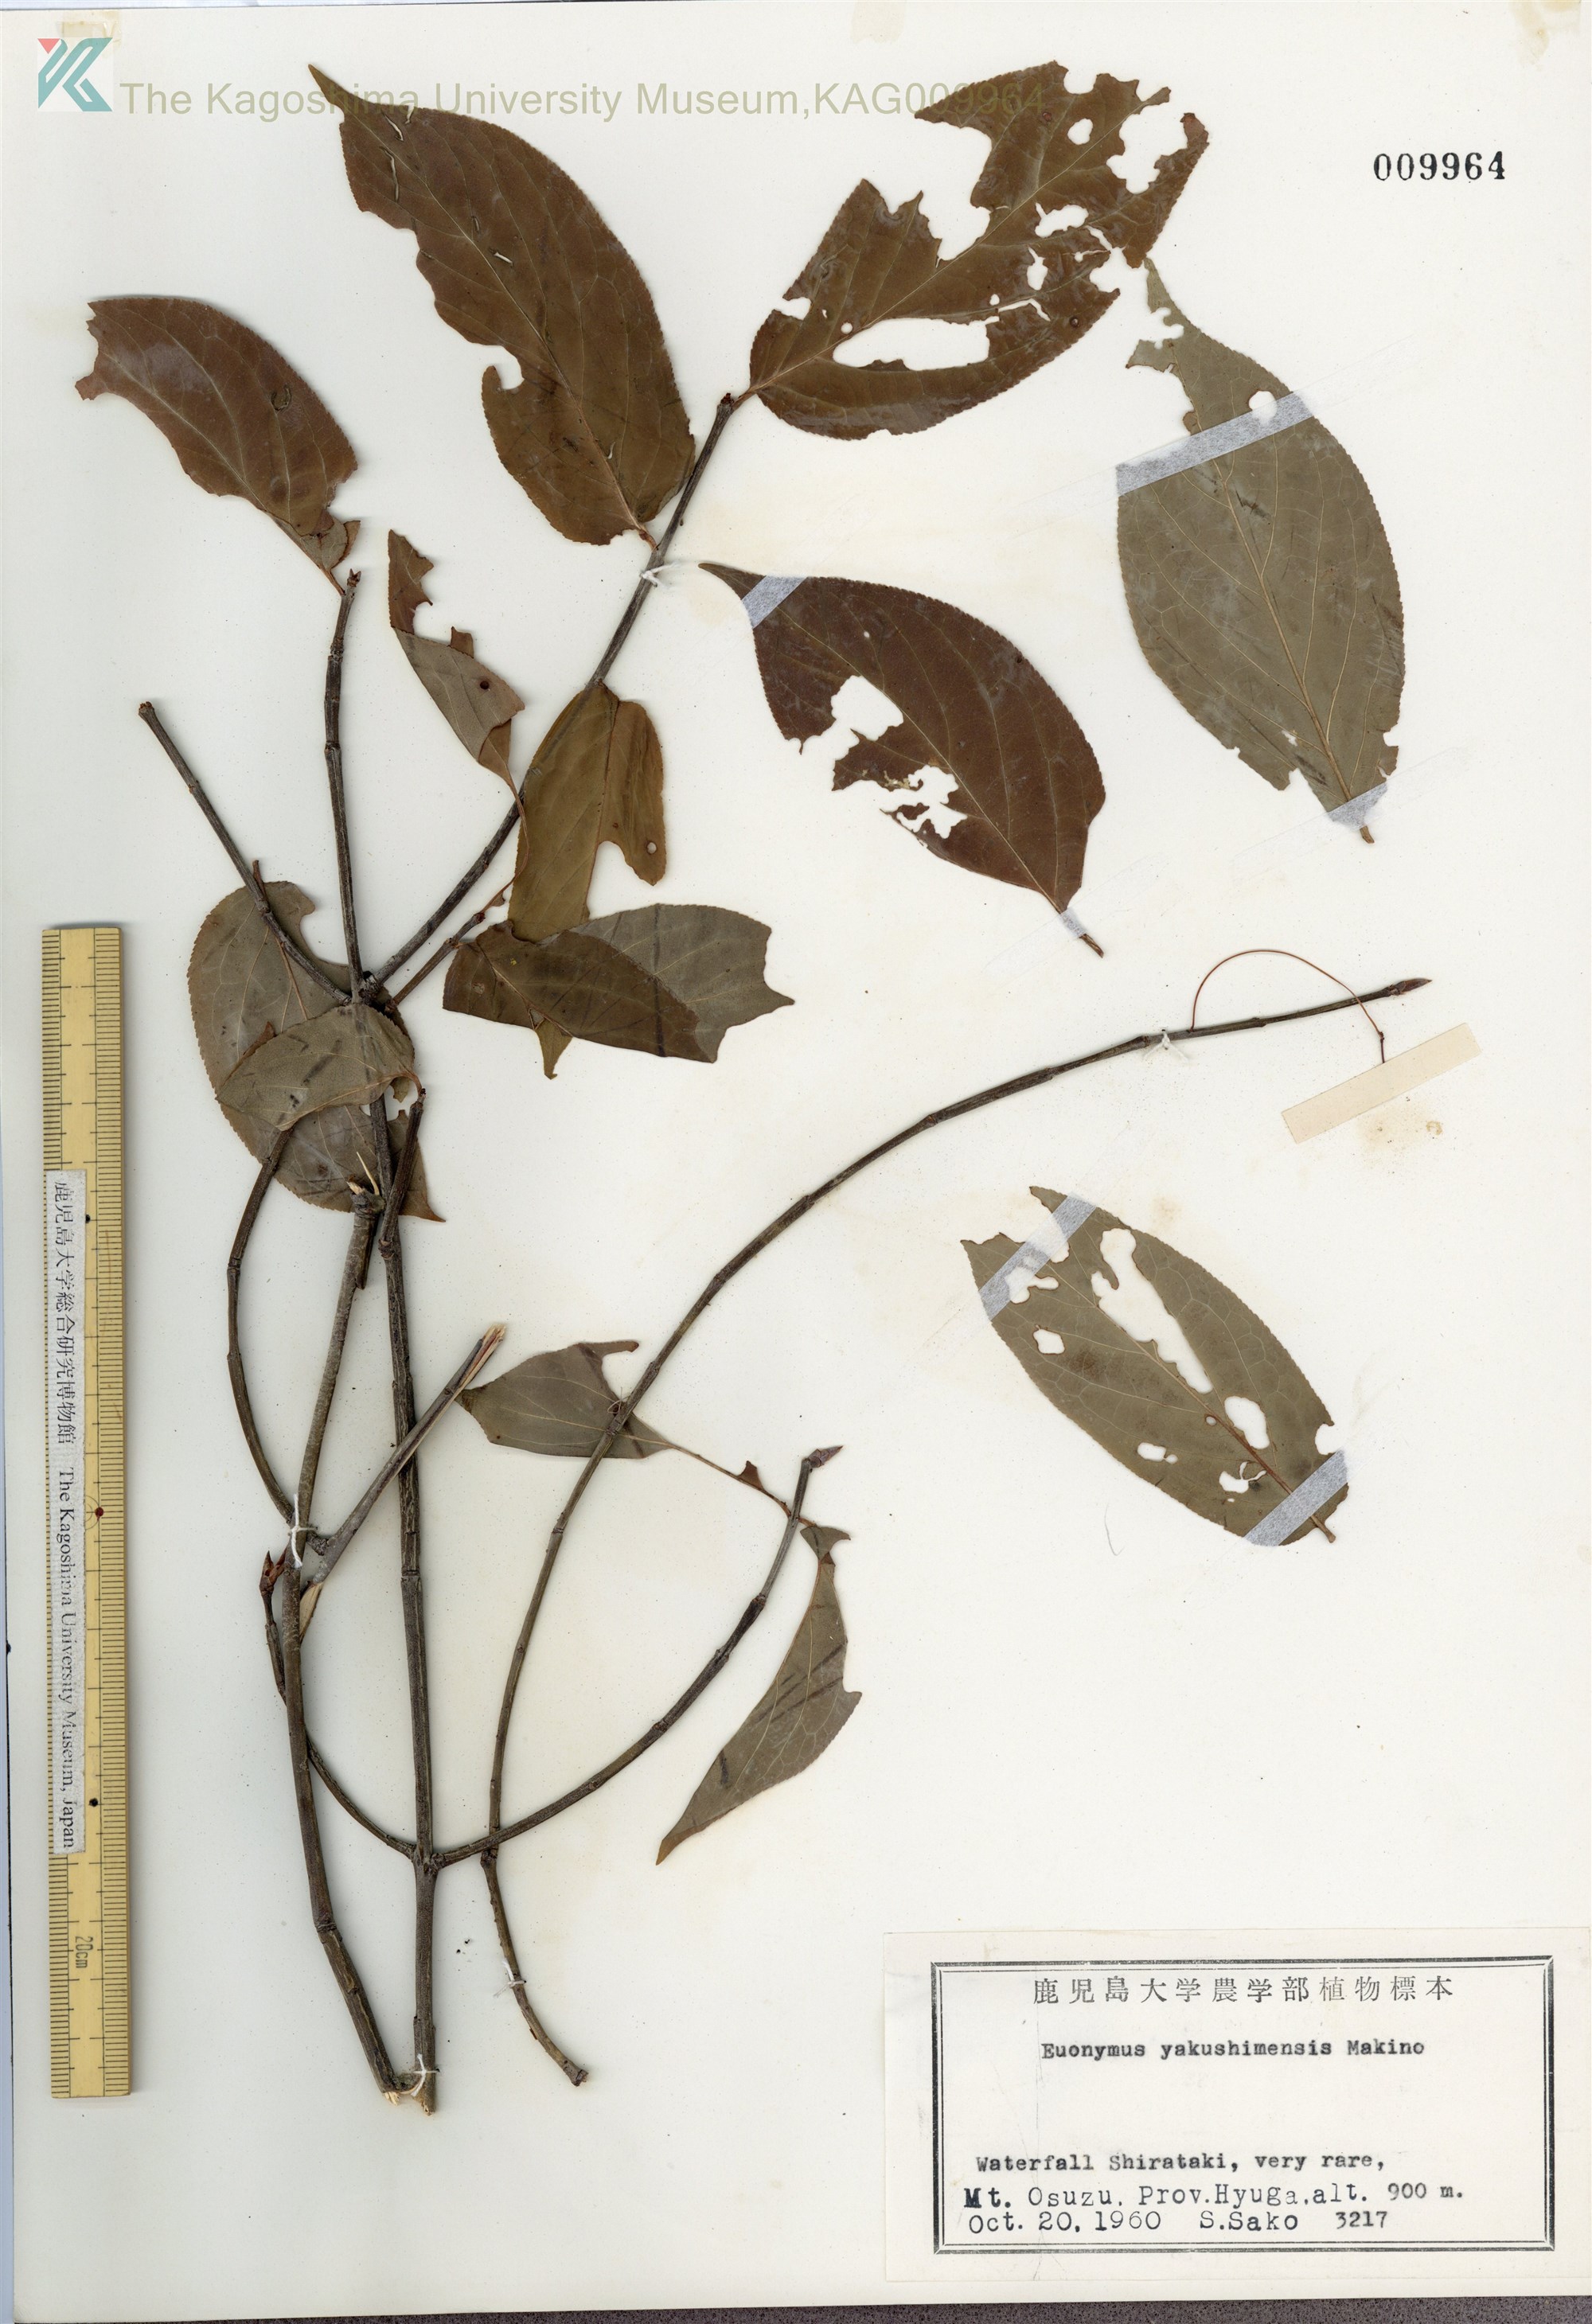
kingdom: Plantae
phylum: Tracheophyta
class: Magnoliopsida
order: Celastrales
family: Celastraceae
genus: Euonymus
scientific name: Euonymus yakushimensis
